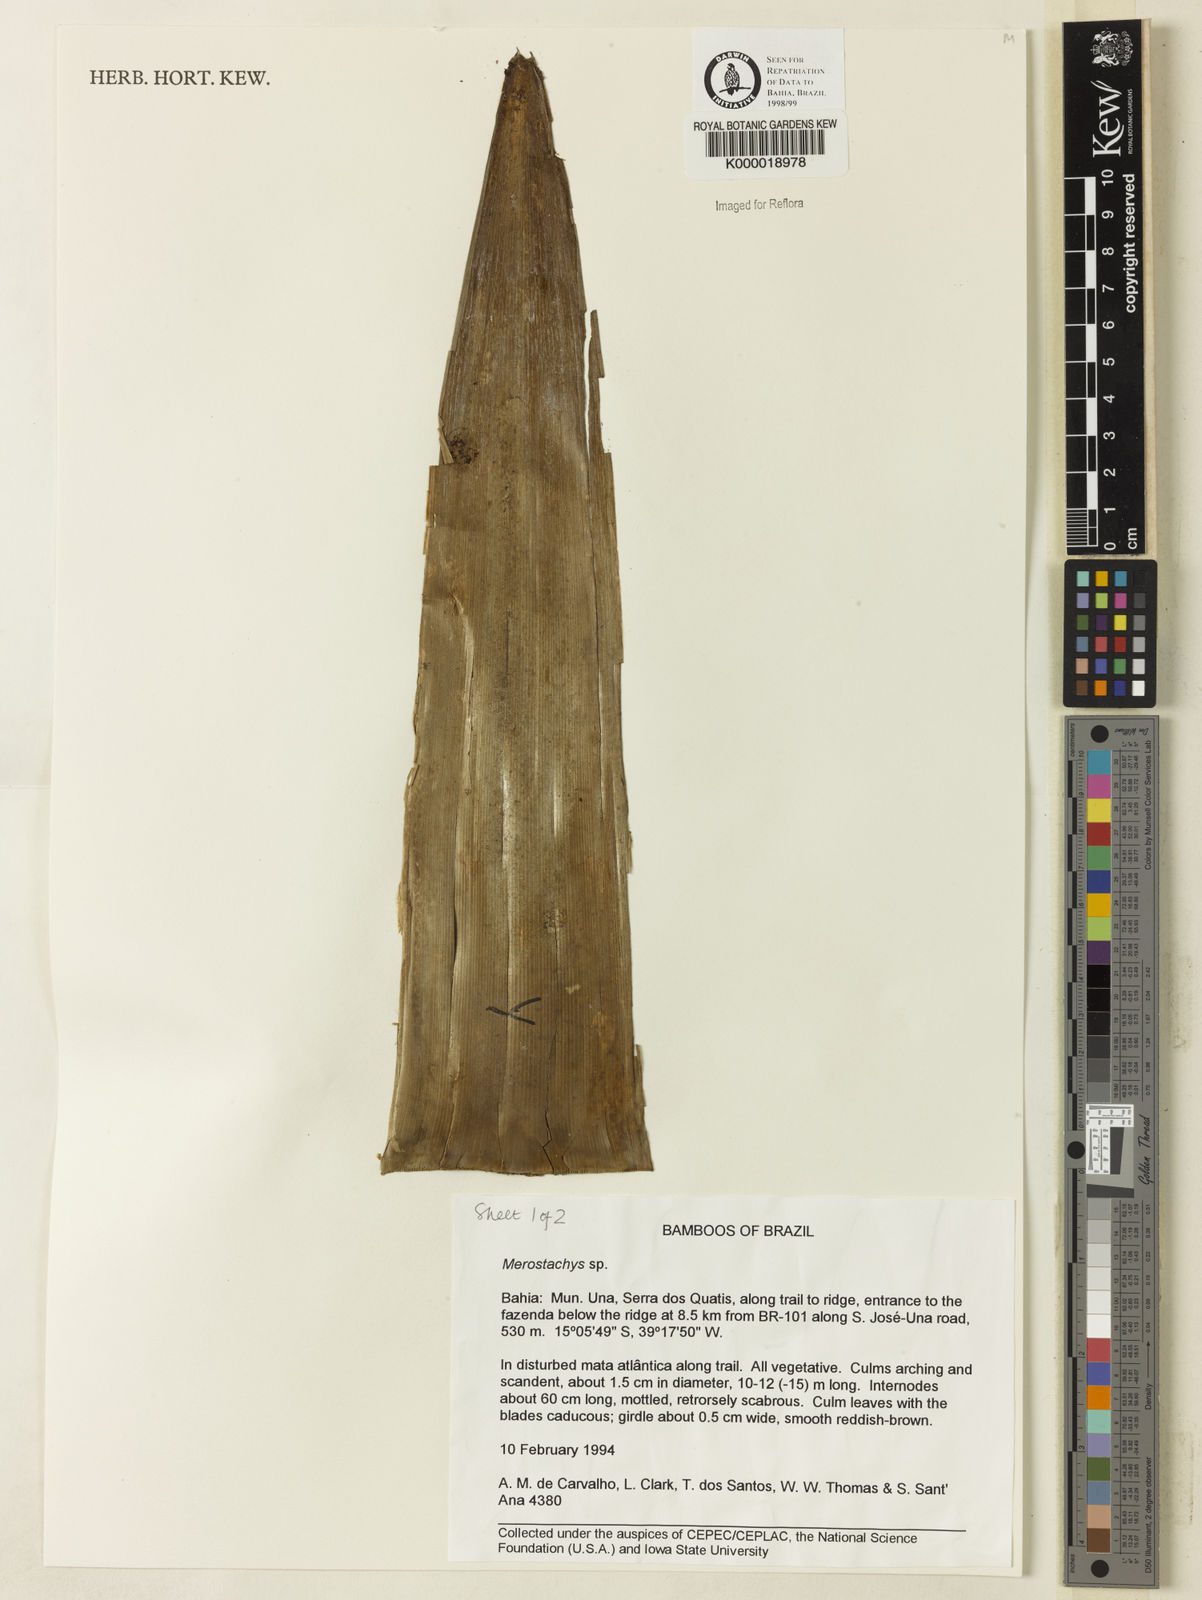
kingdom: Plantae
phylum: Tracheophyta
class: Liliopsida
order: Poales
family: Poaceae
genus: Merostachys
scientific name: Merostachys
